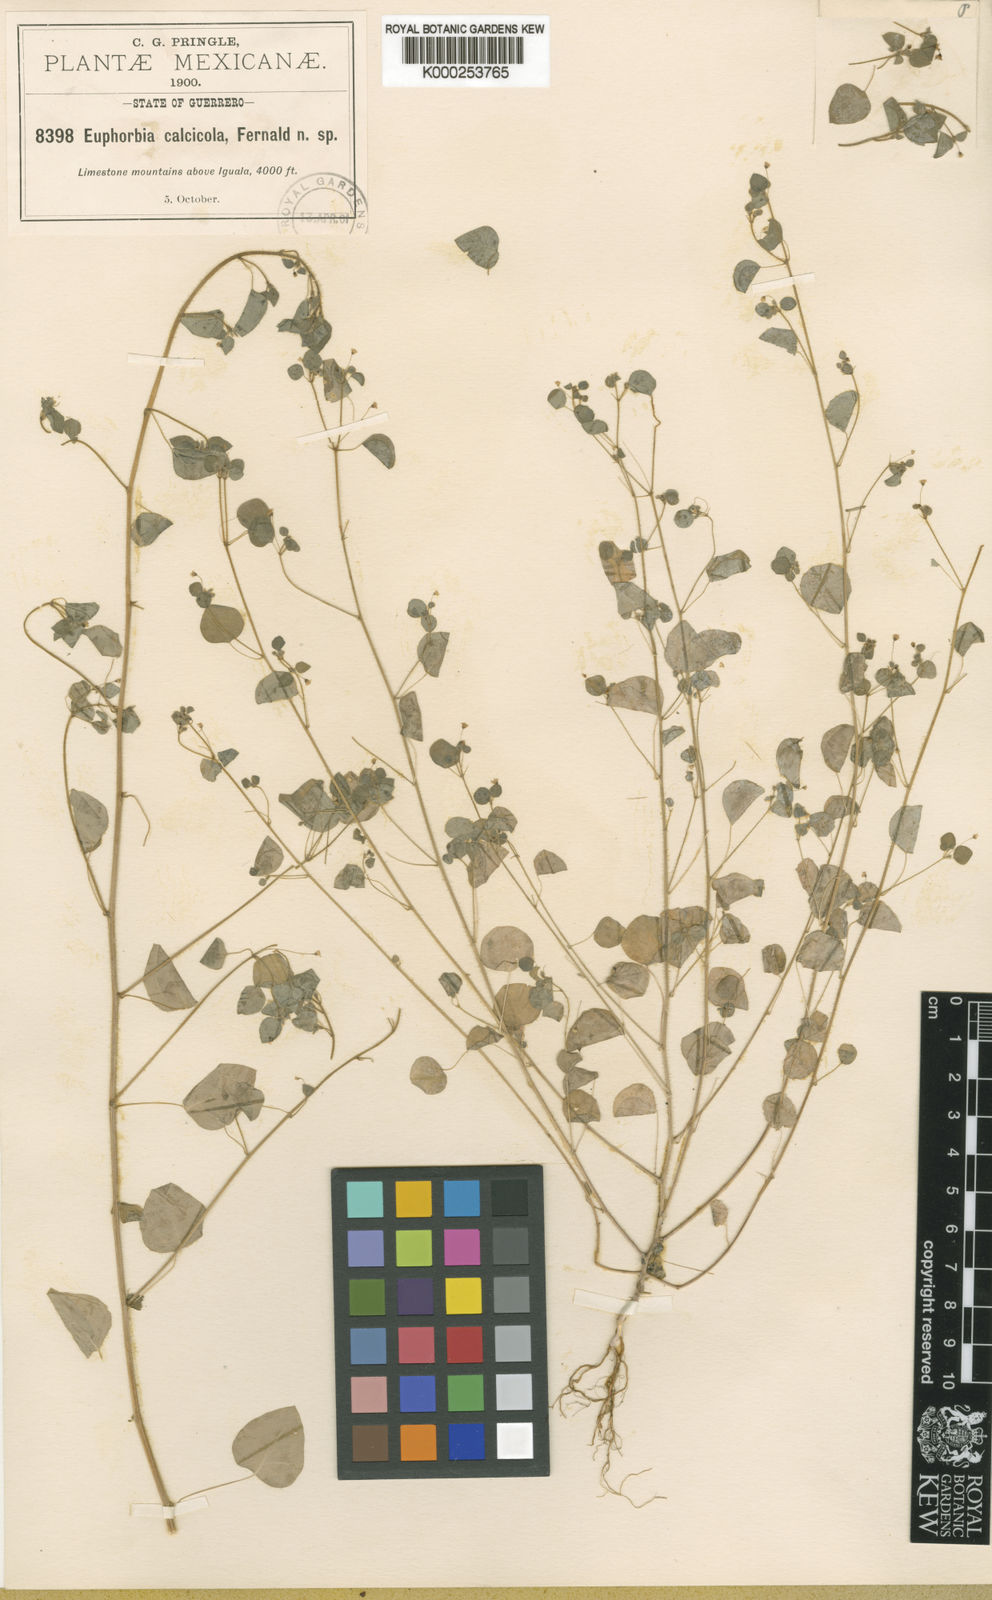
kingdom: Plantae
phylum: Tracheophyta
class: Magnoliopsida
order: Malpighiales
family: Euphorbiaceae
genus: Euphorbia
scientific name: Euphorbia calcicola
